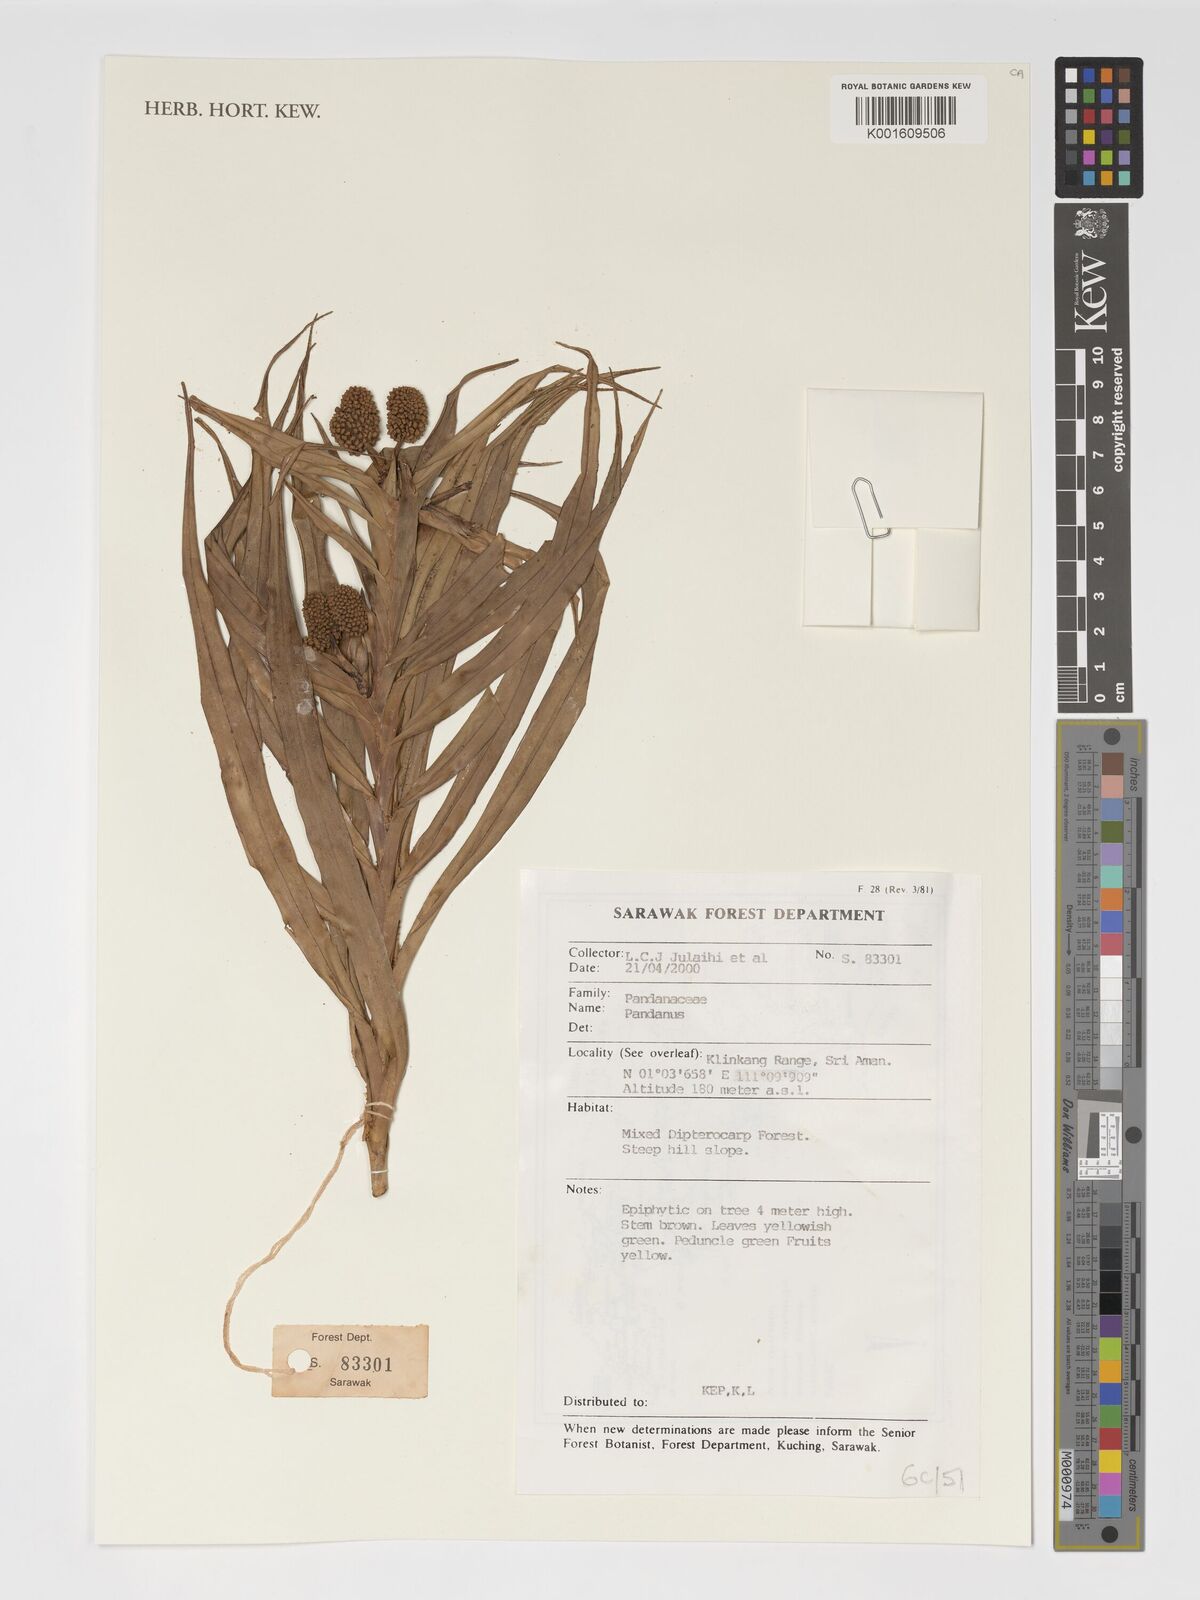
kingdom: Plantae
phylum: Tracheophyta
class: Liliopsida
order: Pandanales
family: Pandanaceae
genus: Pandanus
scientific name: Pandanus
